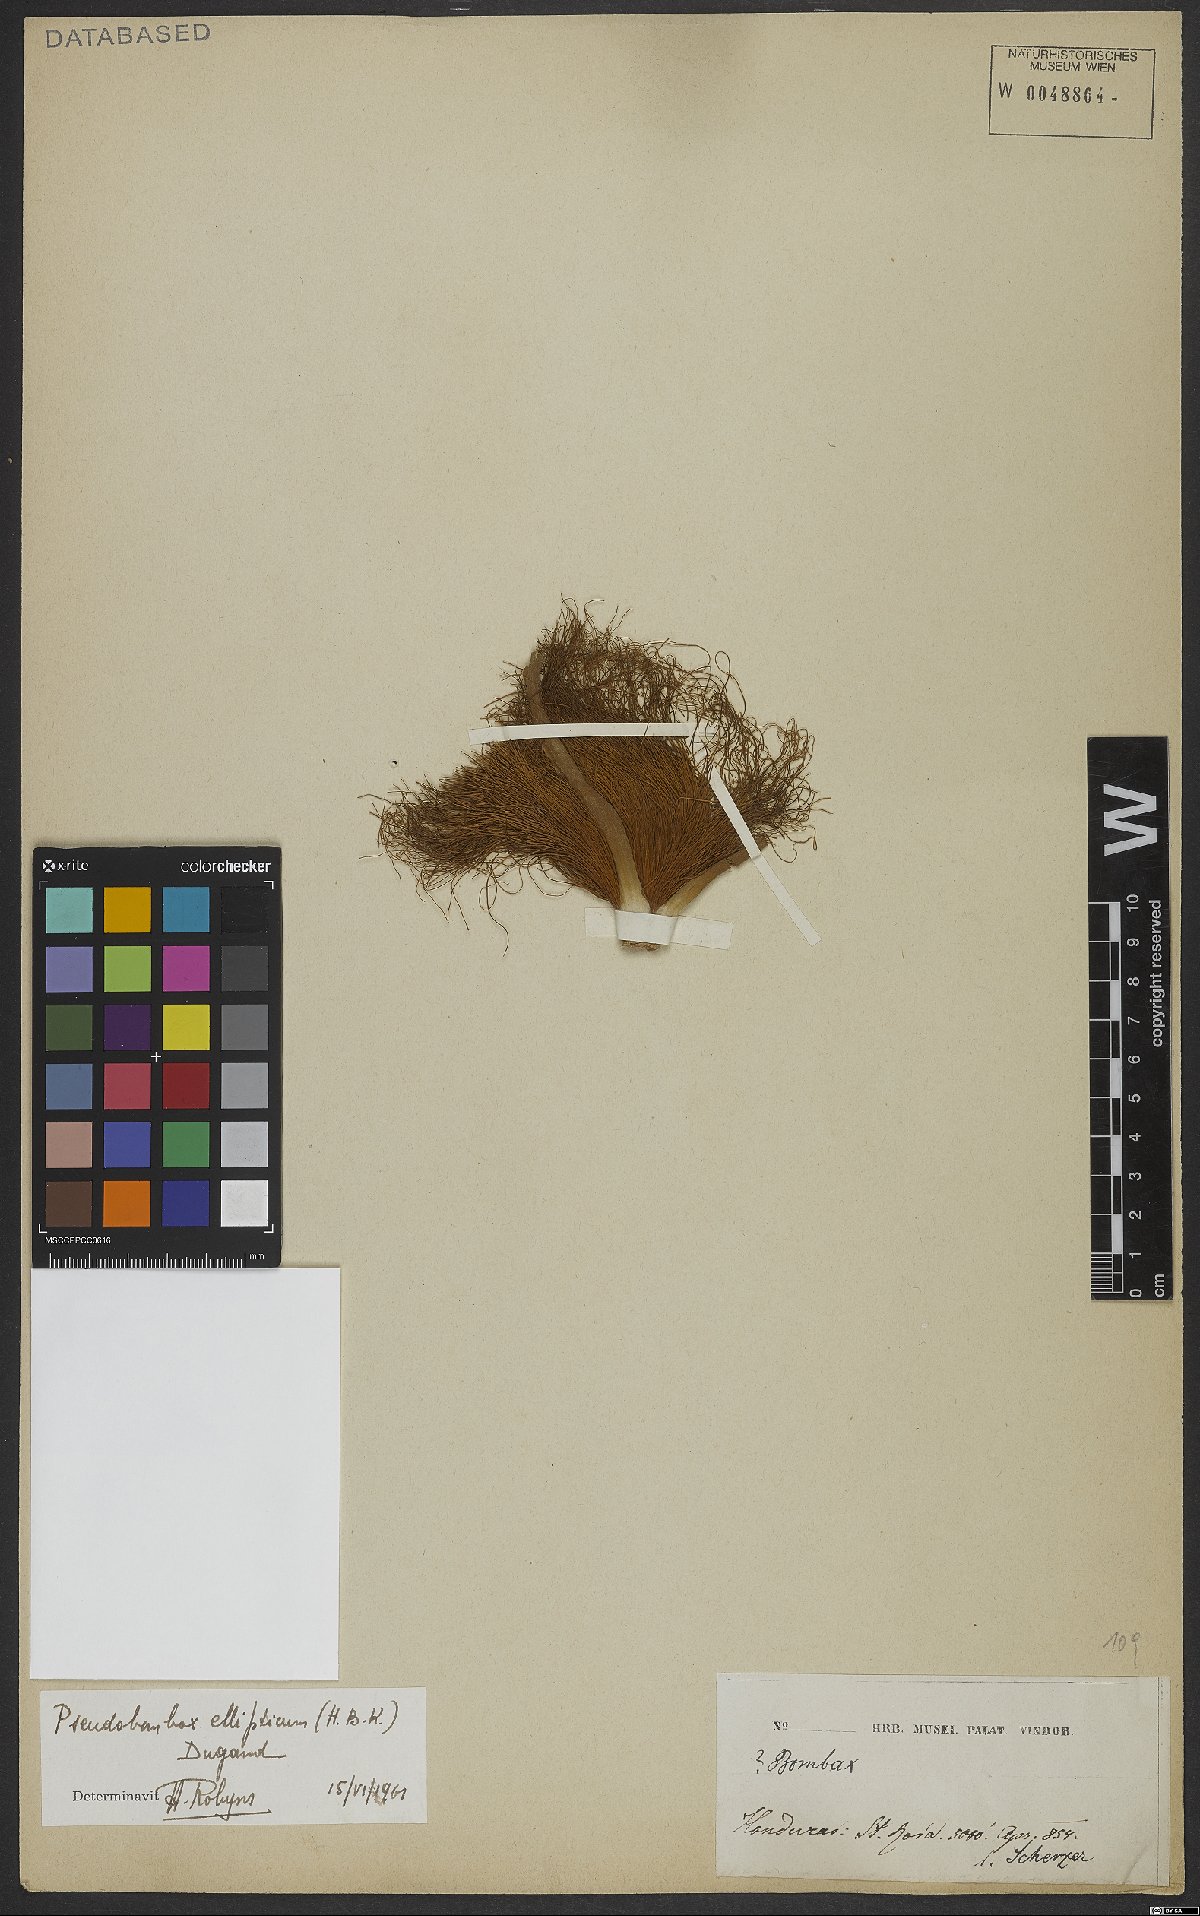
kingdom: Plantae
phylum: Tracheophyta
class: Magnoliopsida
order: Malvales
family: Malvaceae
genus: Pseudobombax
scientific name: Pseudobombax ellipticum
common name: Shaving-brush-tree
